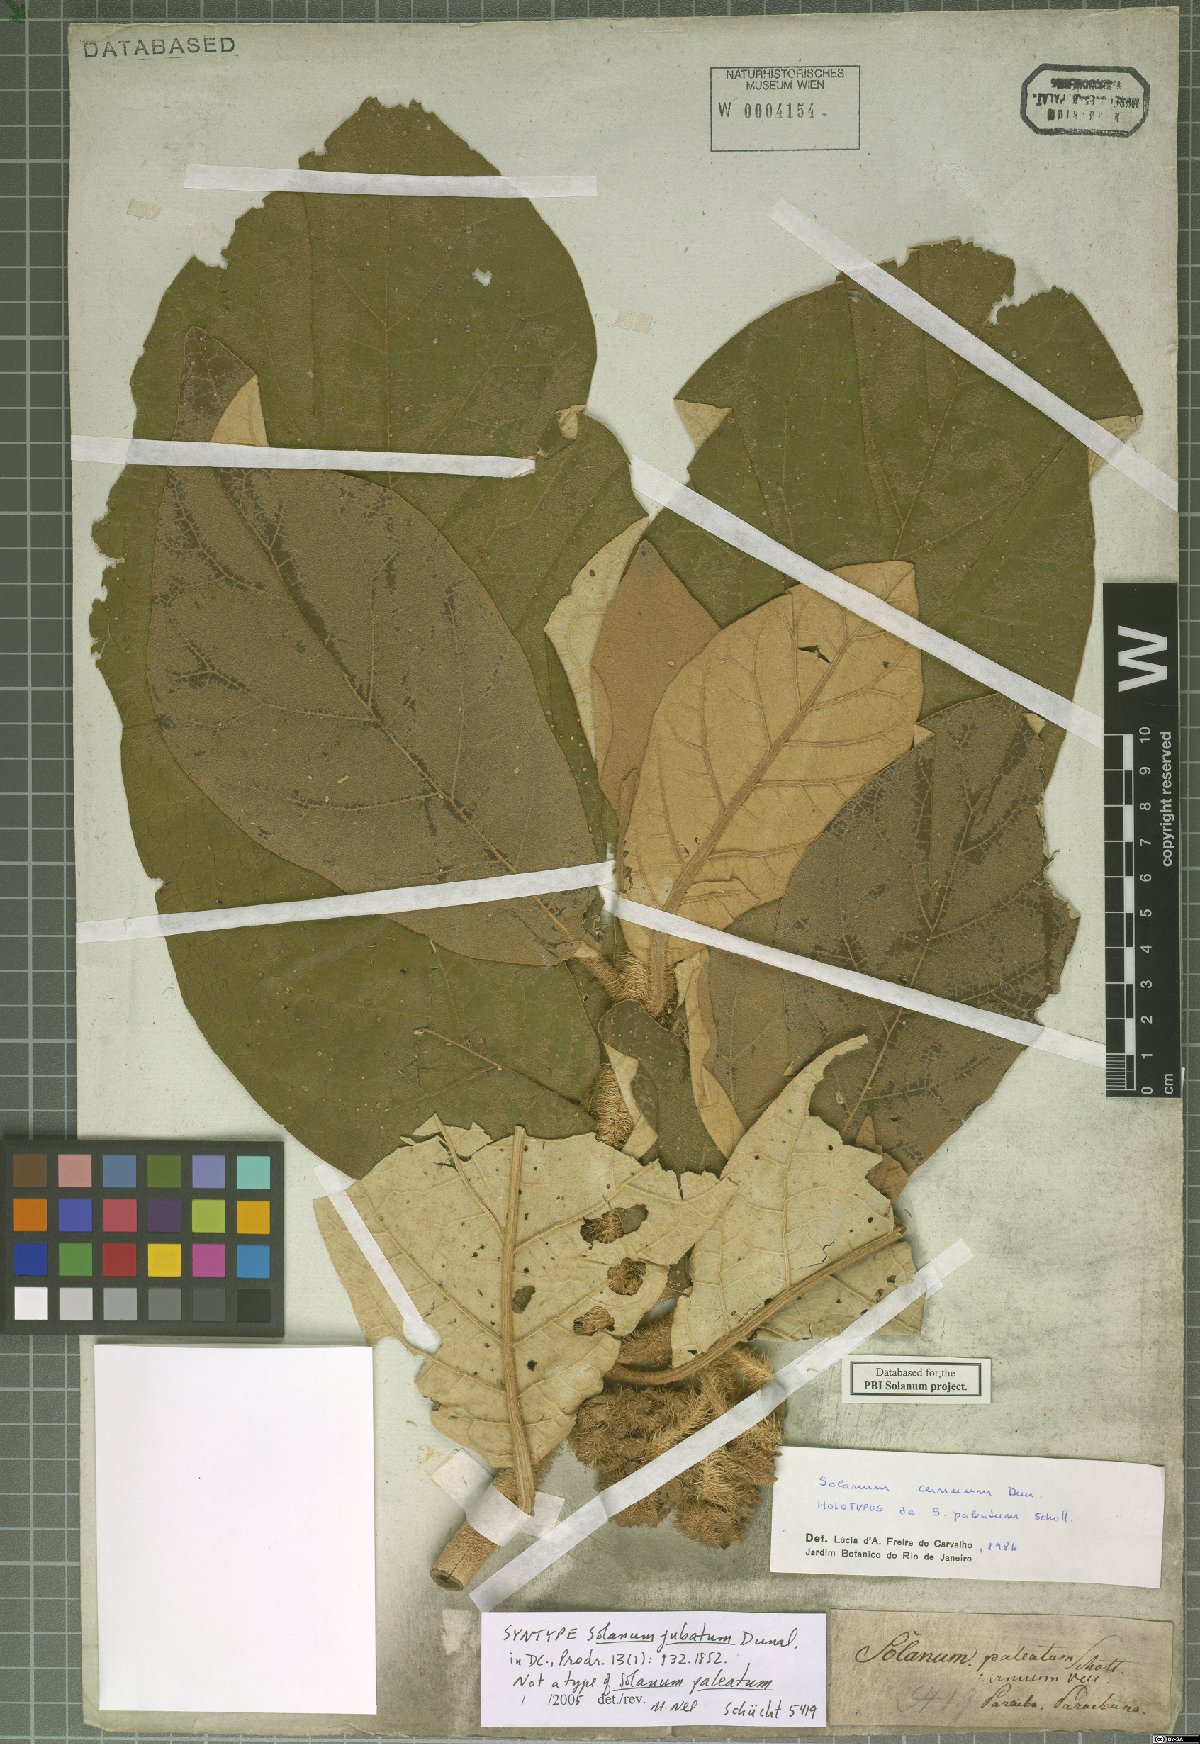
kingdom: Plantae
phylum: Tracheophyta
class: Magnoliopsida
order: Solanales
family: Solanaceae
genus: Solanum
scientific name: Solanum cernuum
